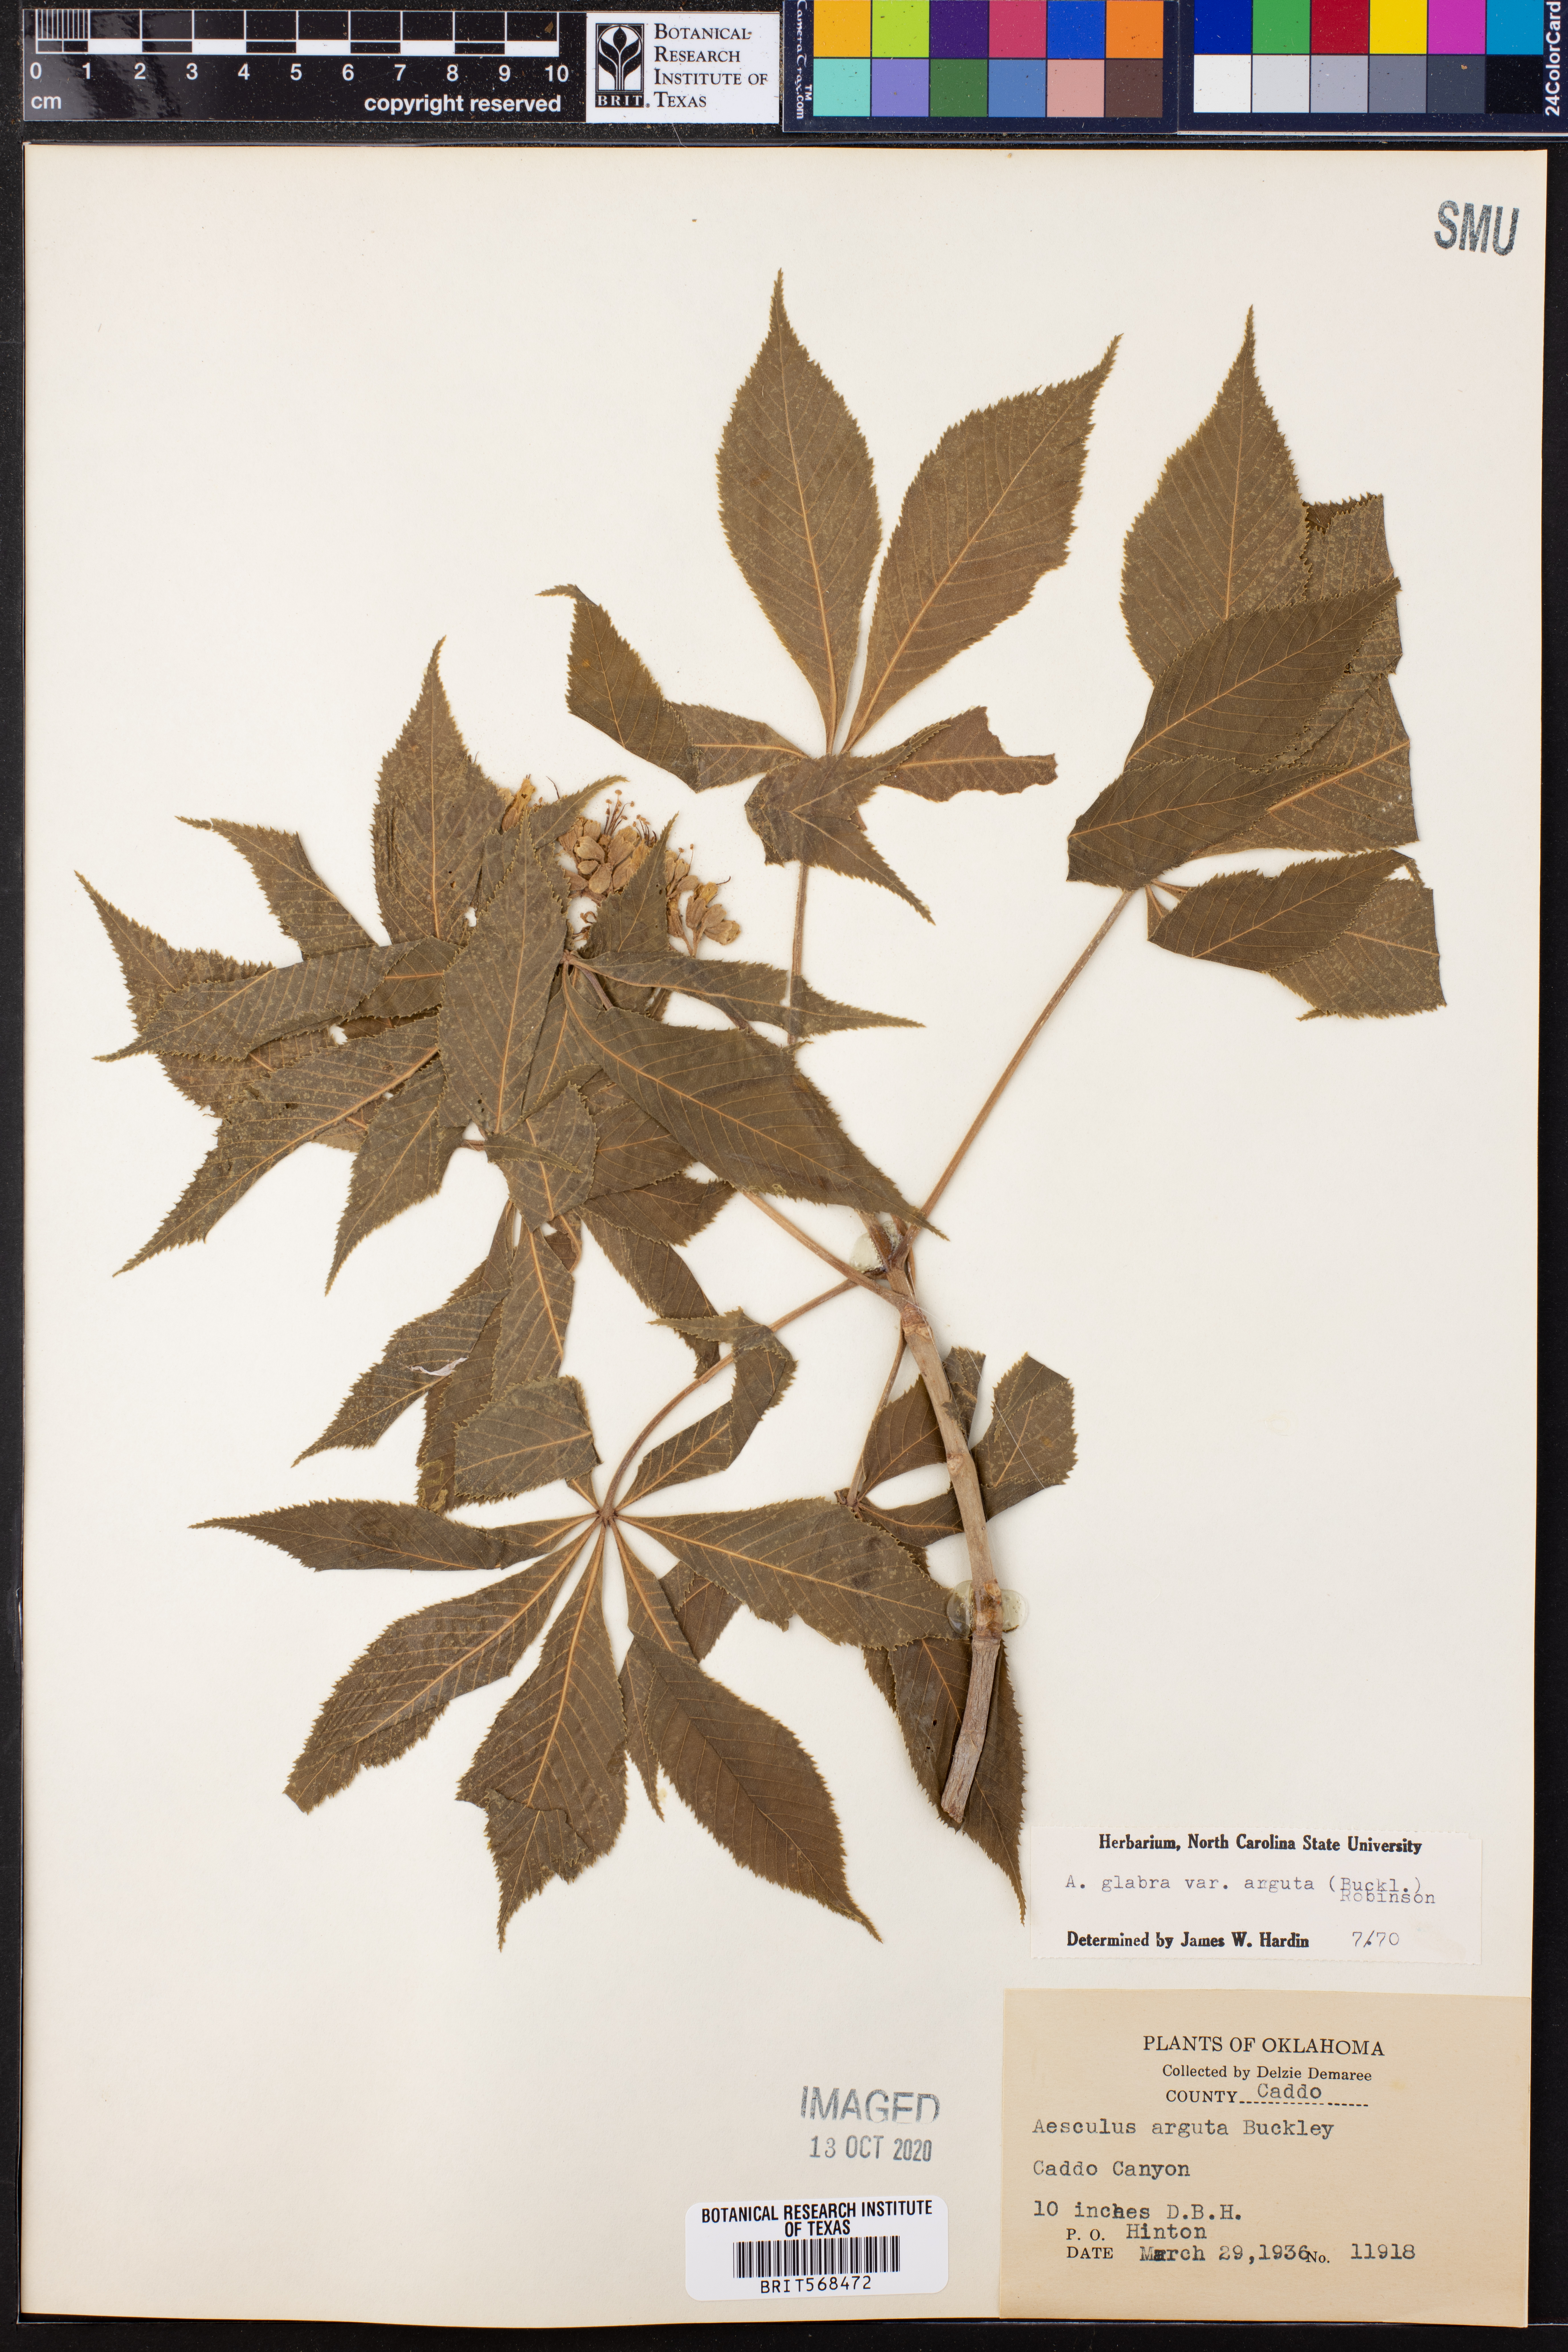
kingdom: Plantae
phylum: Tracheophyta
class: Magnoliopsida
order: Sapindales
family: Sapindaceae
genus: Aesculus
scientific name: Aesculus glabra
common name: Ohio buckeye
